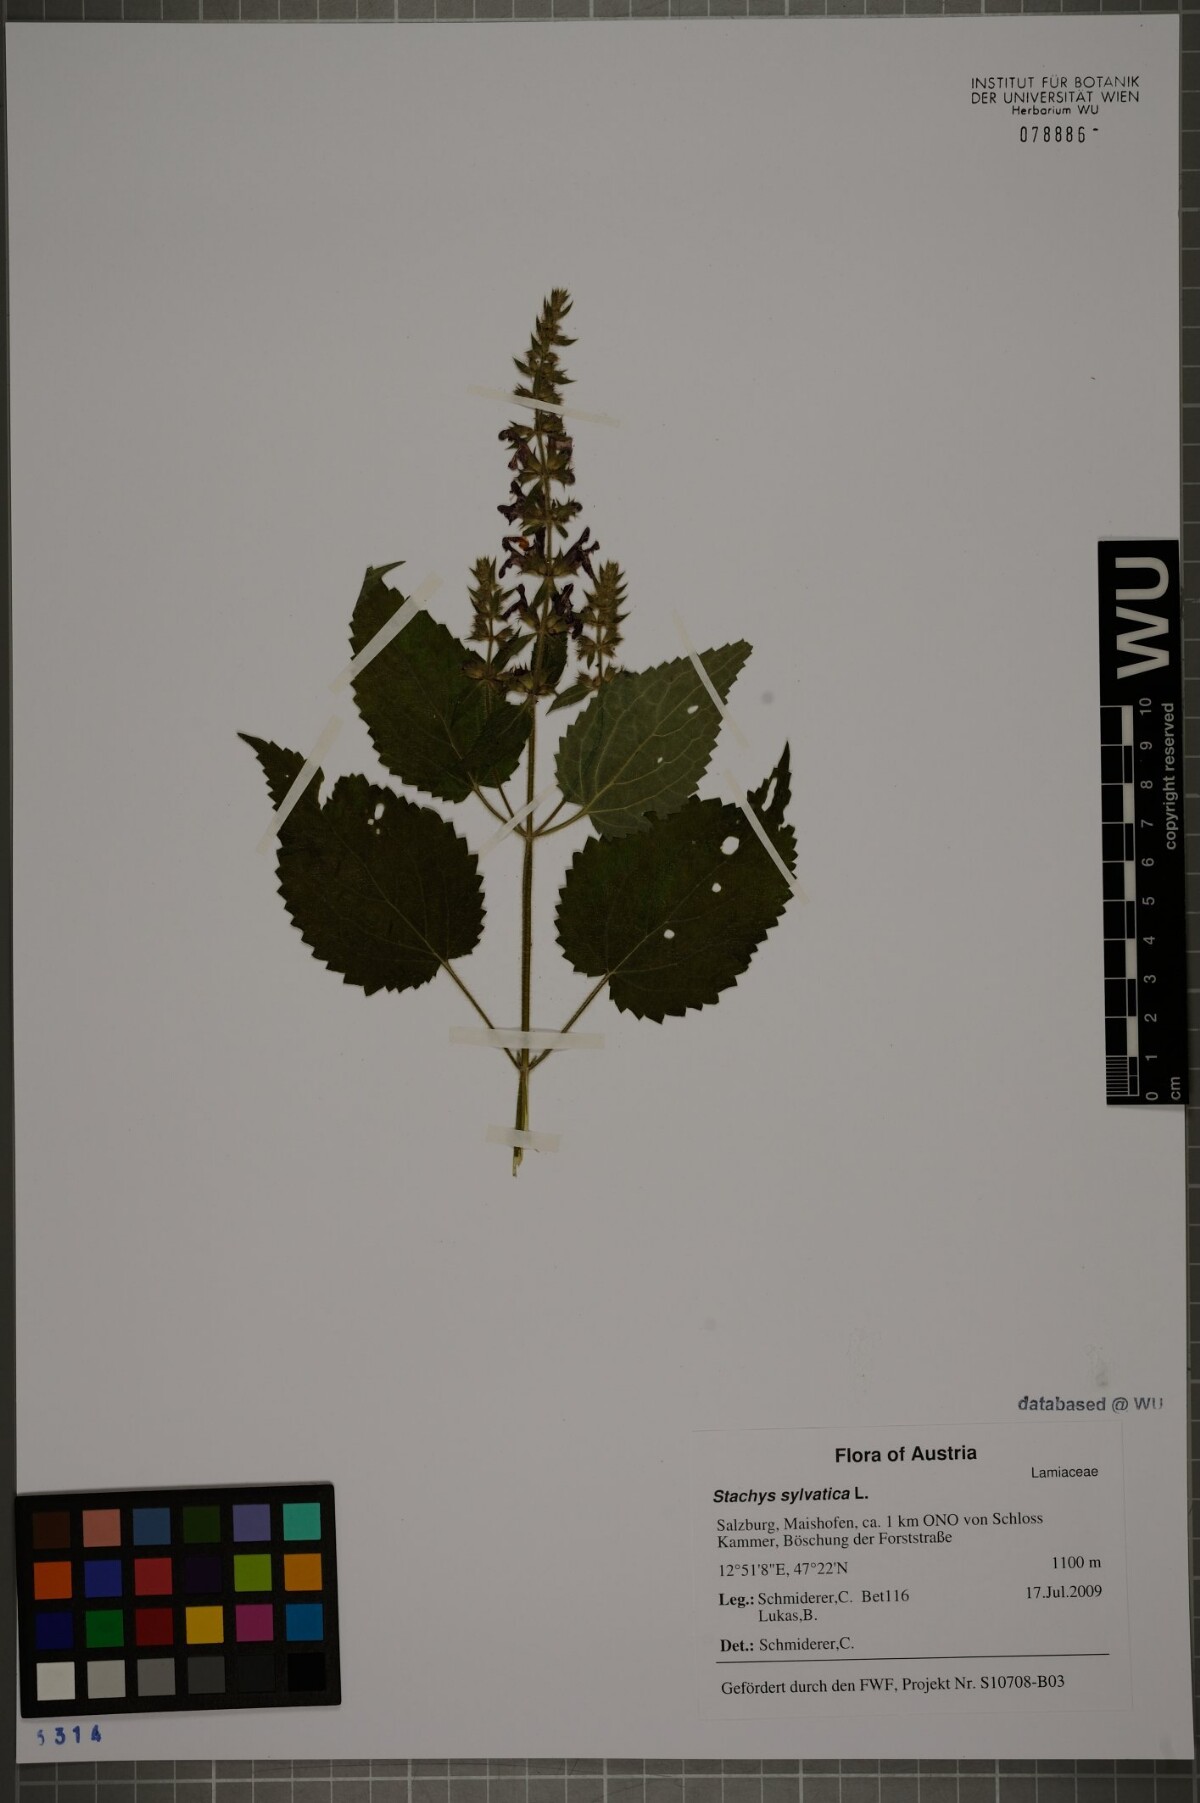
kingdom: Plantae
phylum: Tracheophyta
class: Magnoliopsida
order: Lamiales
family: Lamiaceae
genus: Stachys
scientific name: Stachys sylvatica
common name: Hedge woundwort
